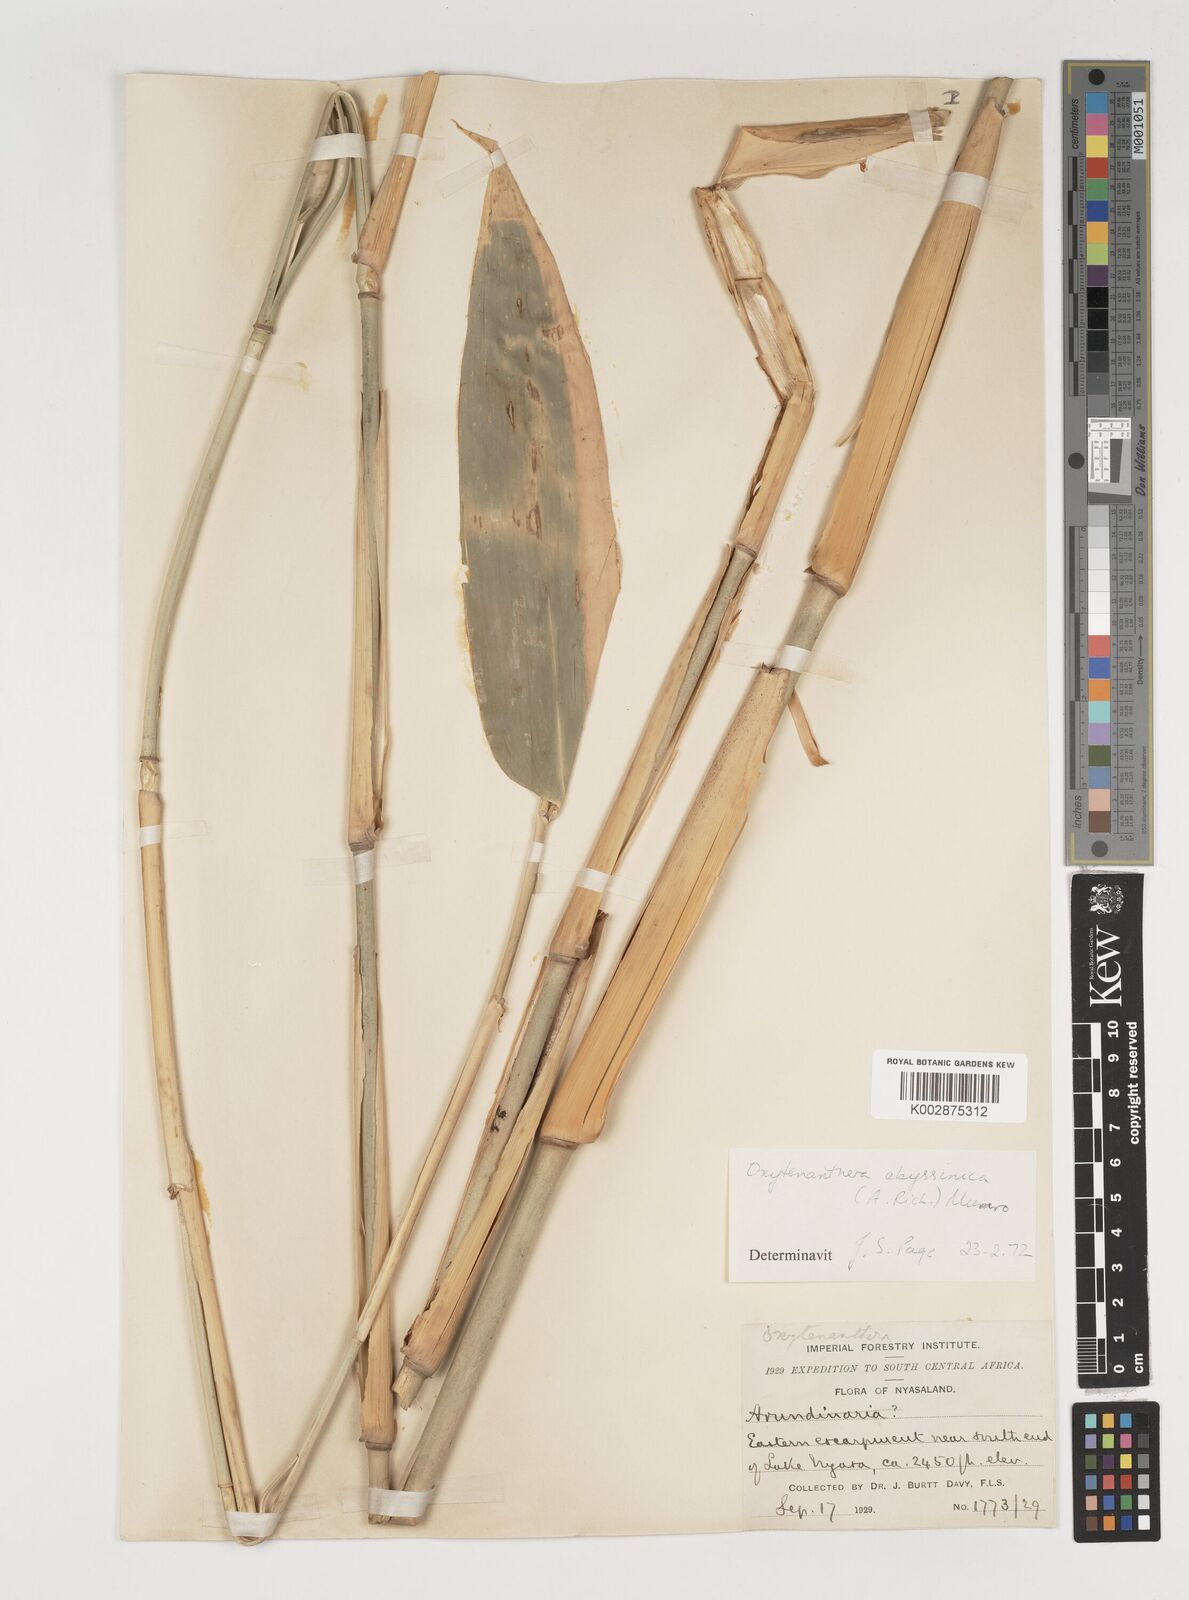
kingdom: Plantae
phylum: Tracheophyta
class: Liliopsida
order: Poales
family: Poaceae
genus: Oxytenanthera
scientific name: Oxytenanthera abyssinica
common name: Wine bamboo
